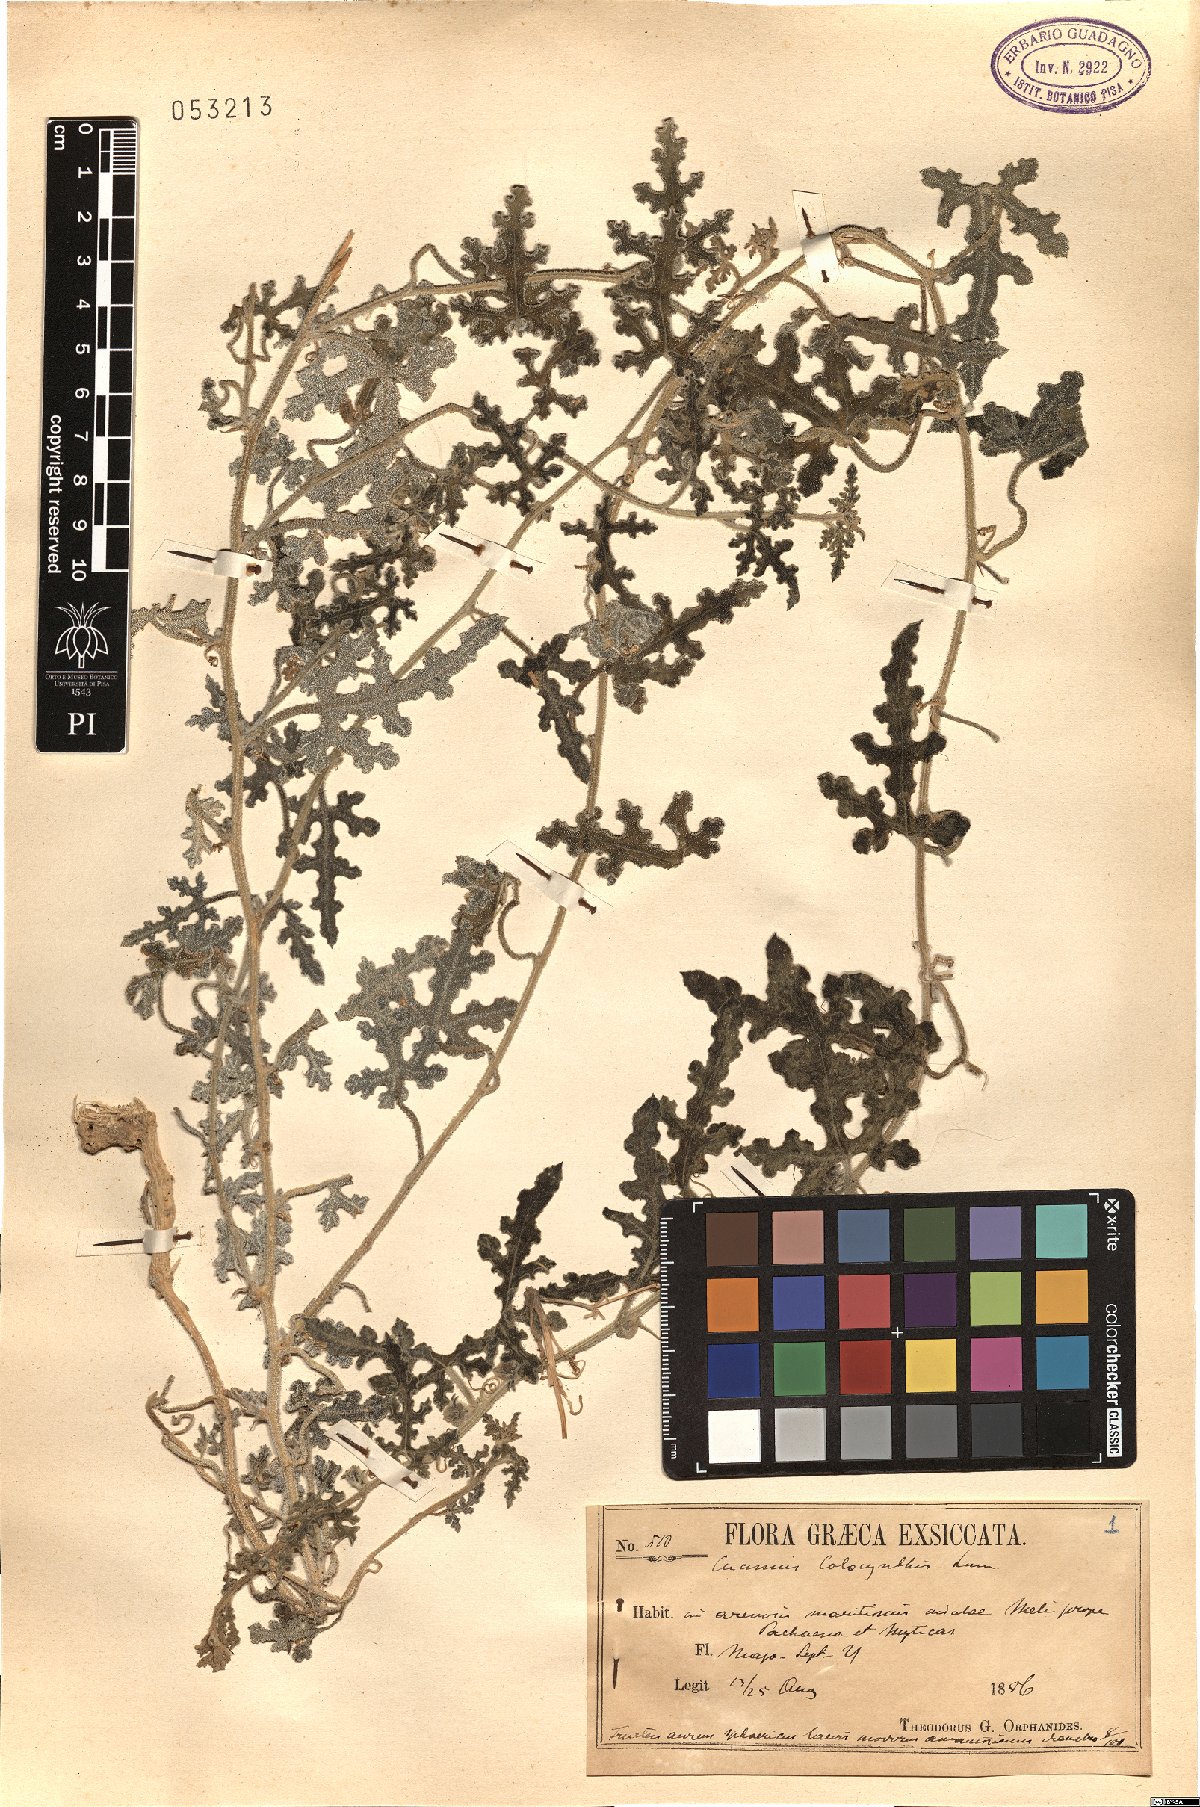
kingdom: Plantae
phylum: Tracheophyta
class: Magnoliopsida
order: Cucurbitales
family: Cucurbitaceae
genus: Citrullus
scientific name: Citrullus colocynthis
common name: Colocynth
